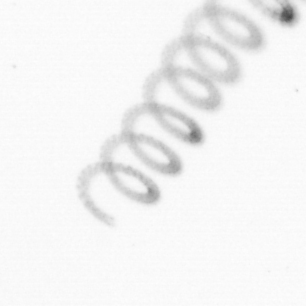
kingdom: Chromista
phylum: Ochrophyta
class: Bacillariophyceae
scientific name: Bacillariophyceae
